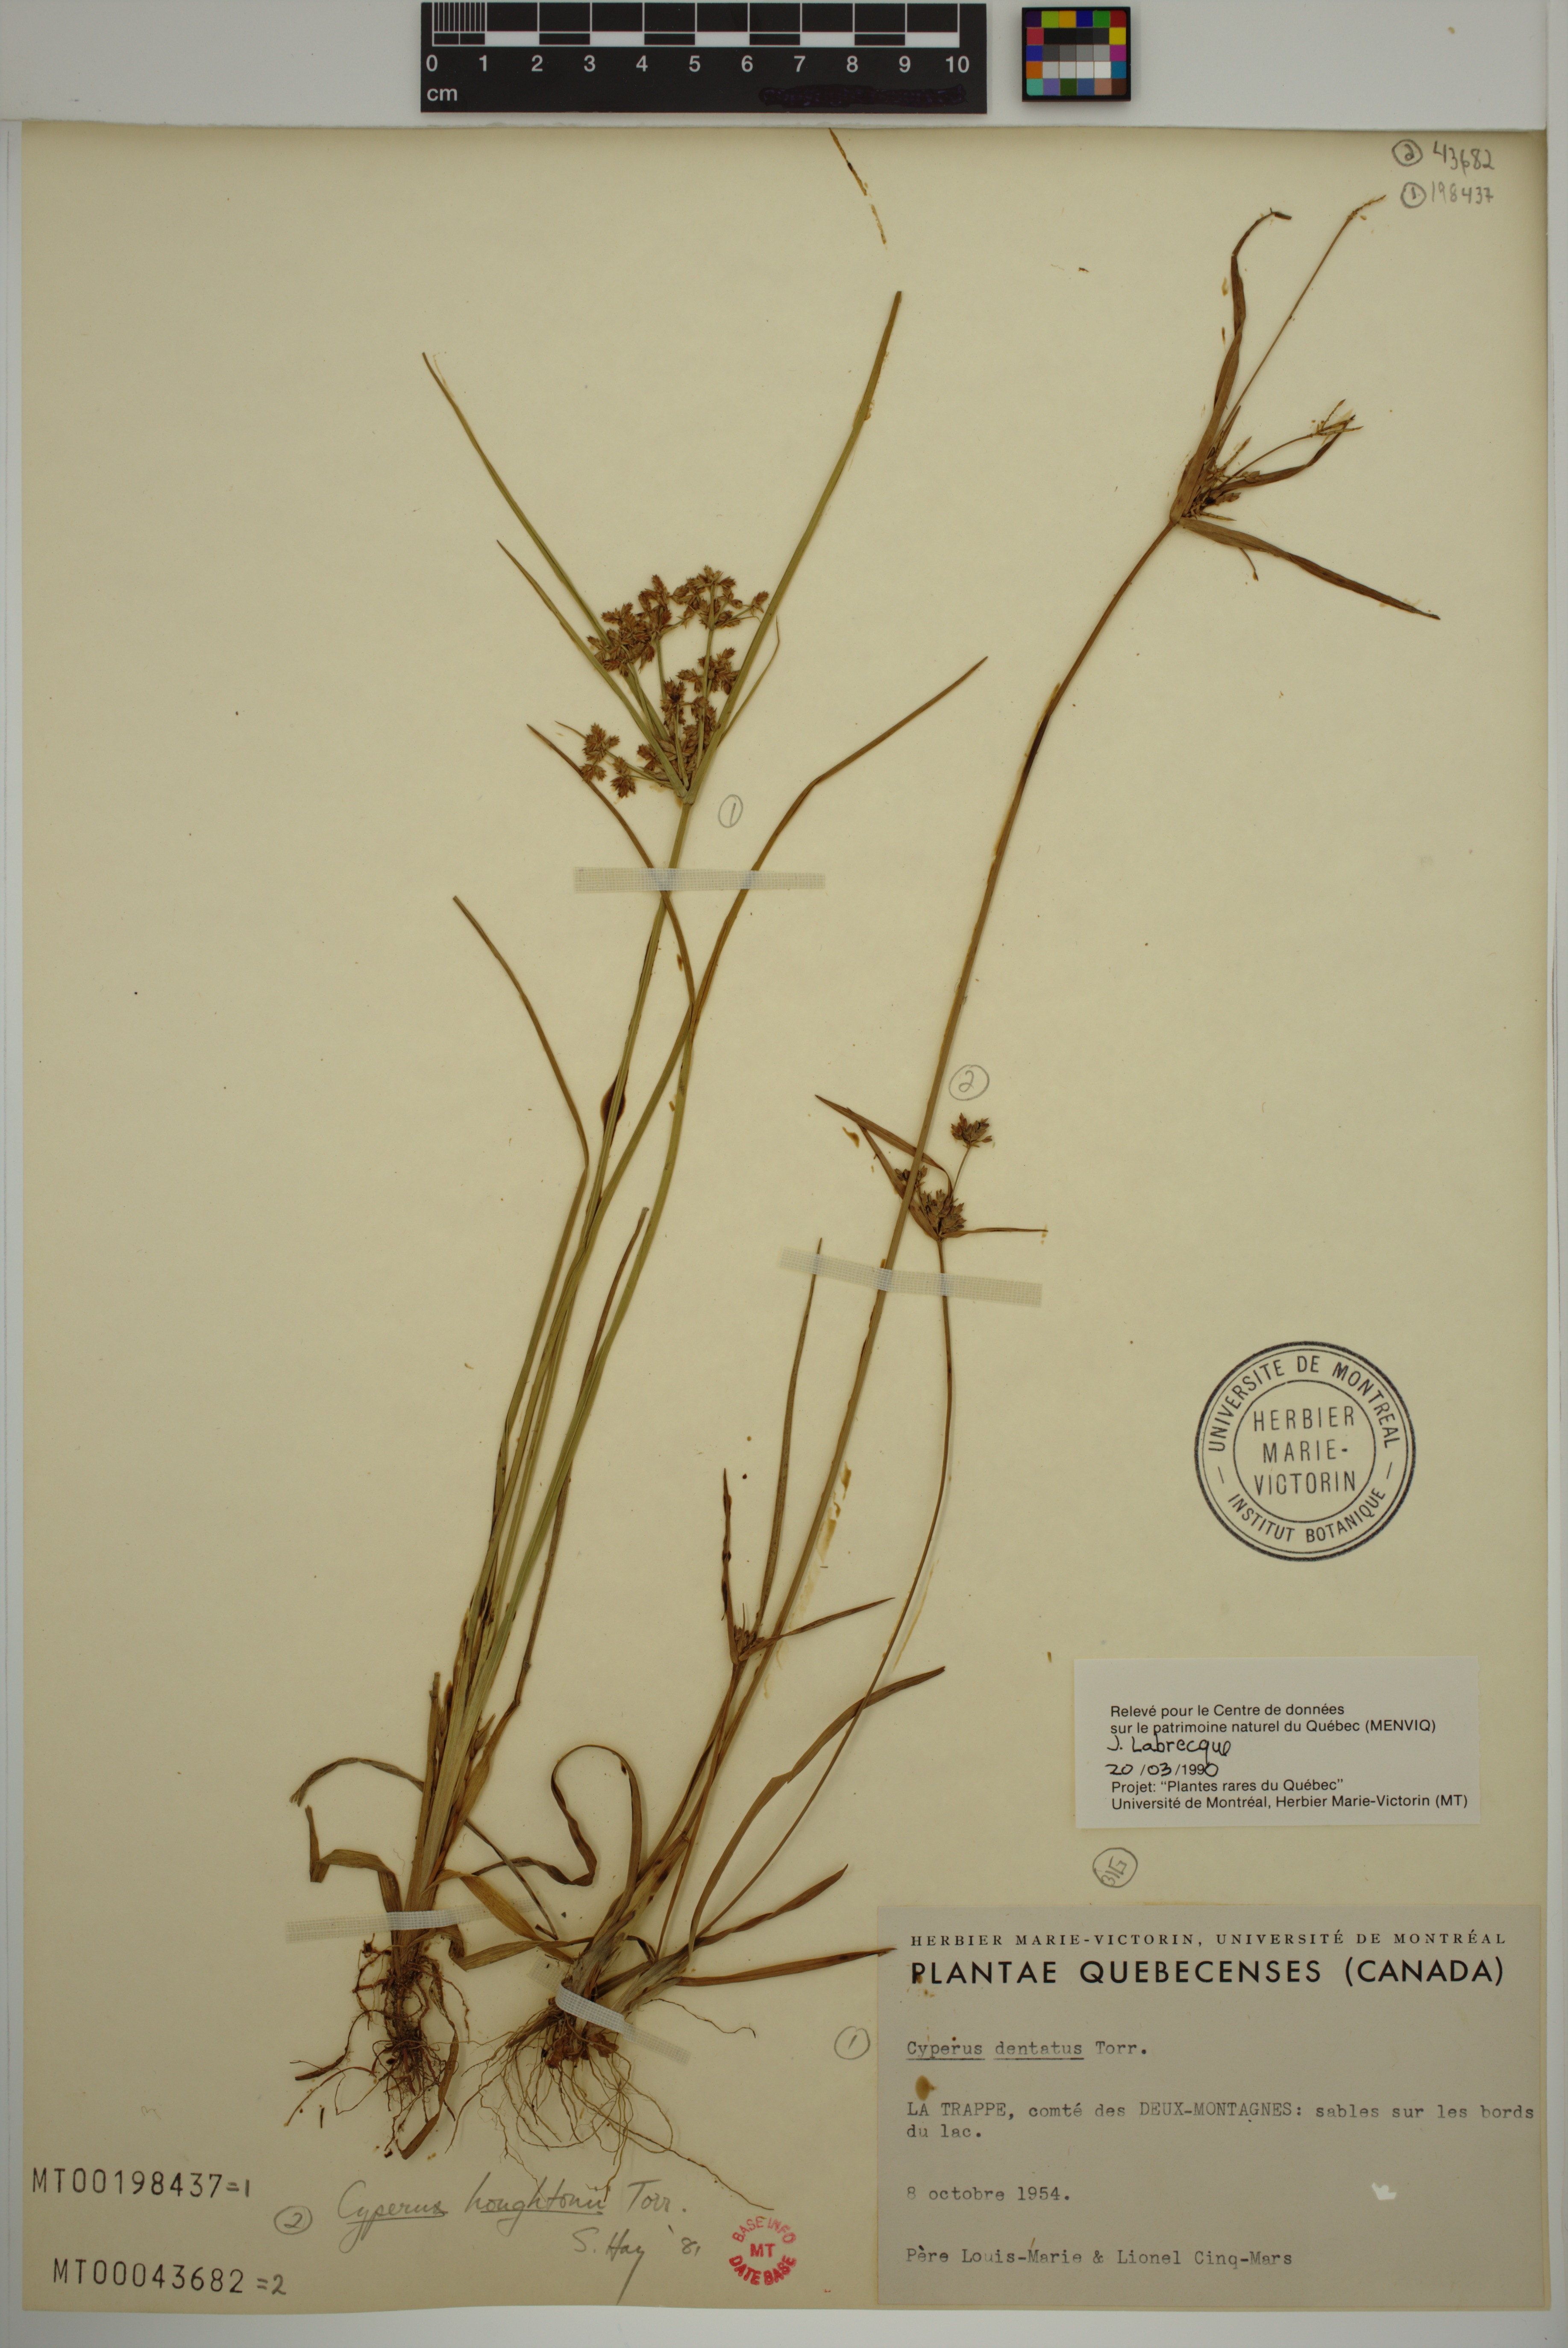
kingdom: Plantae
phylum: Tracheophyta
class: Liliopsida
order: Poales
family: Cyperaceae
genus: Cyperus
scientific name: Cyperus dentatus
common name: Dentate umbrella sedge
